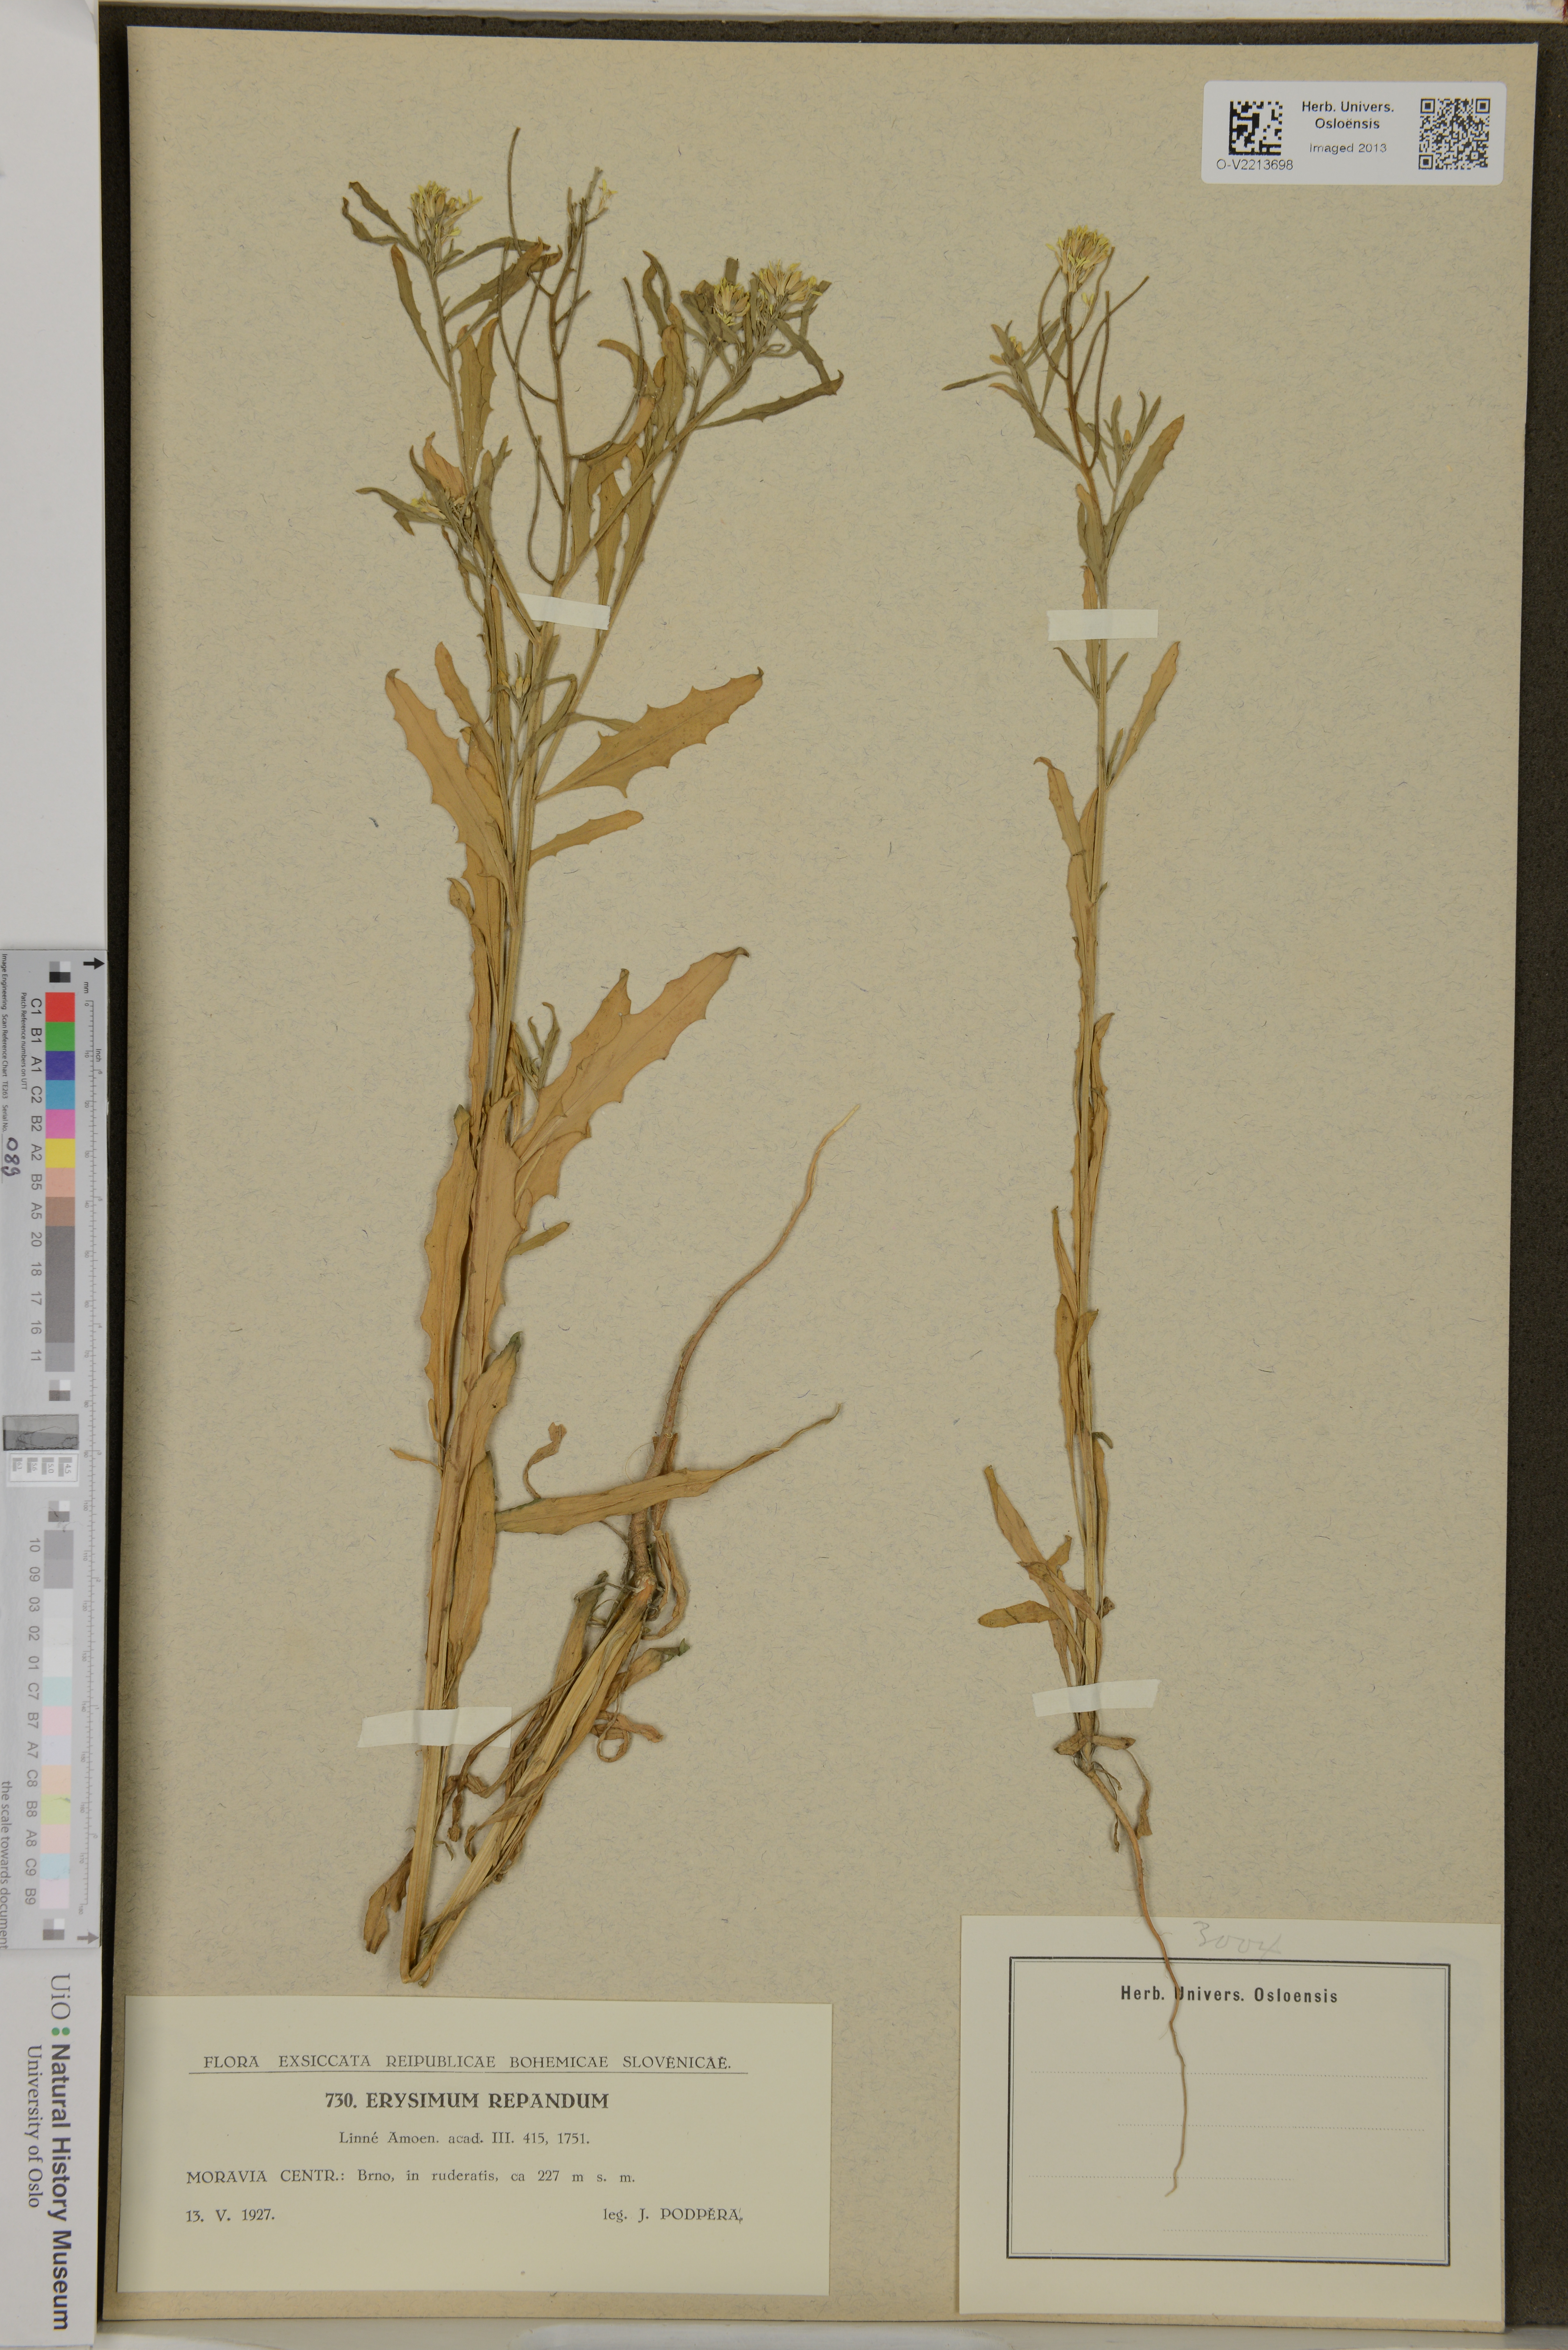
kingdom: Plantae
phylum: Tracheophyta
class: Magnoliopsida
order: Brassicales
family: Brassicaceae
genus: Erysimum
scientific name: Erysimum repandum
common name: Spreading wallflower
